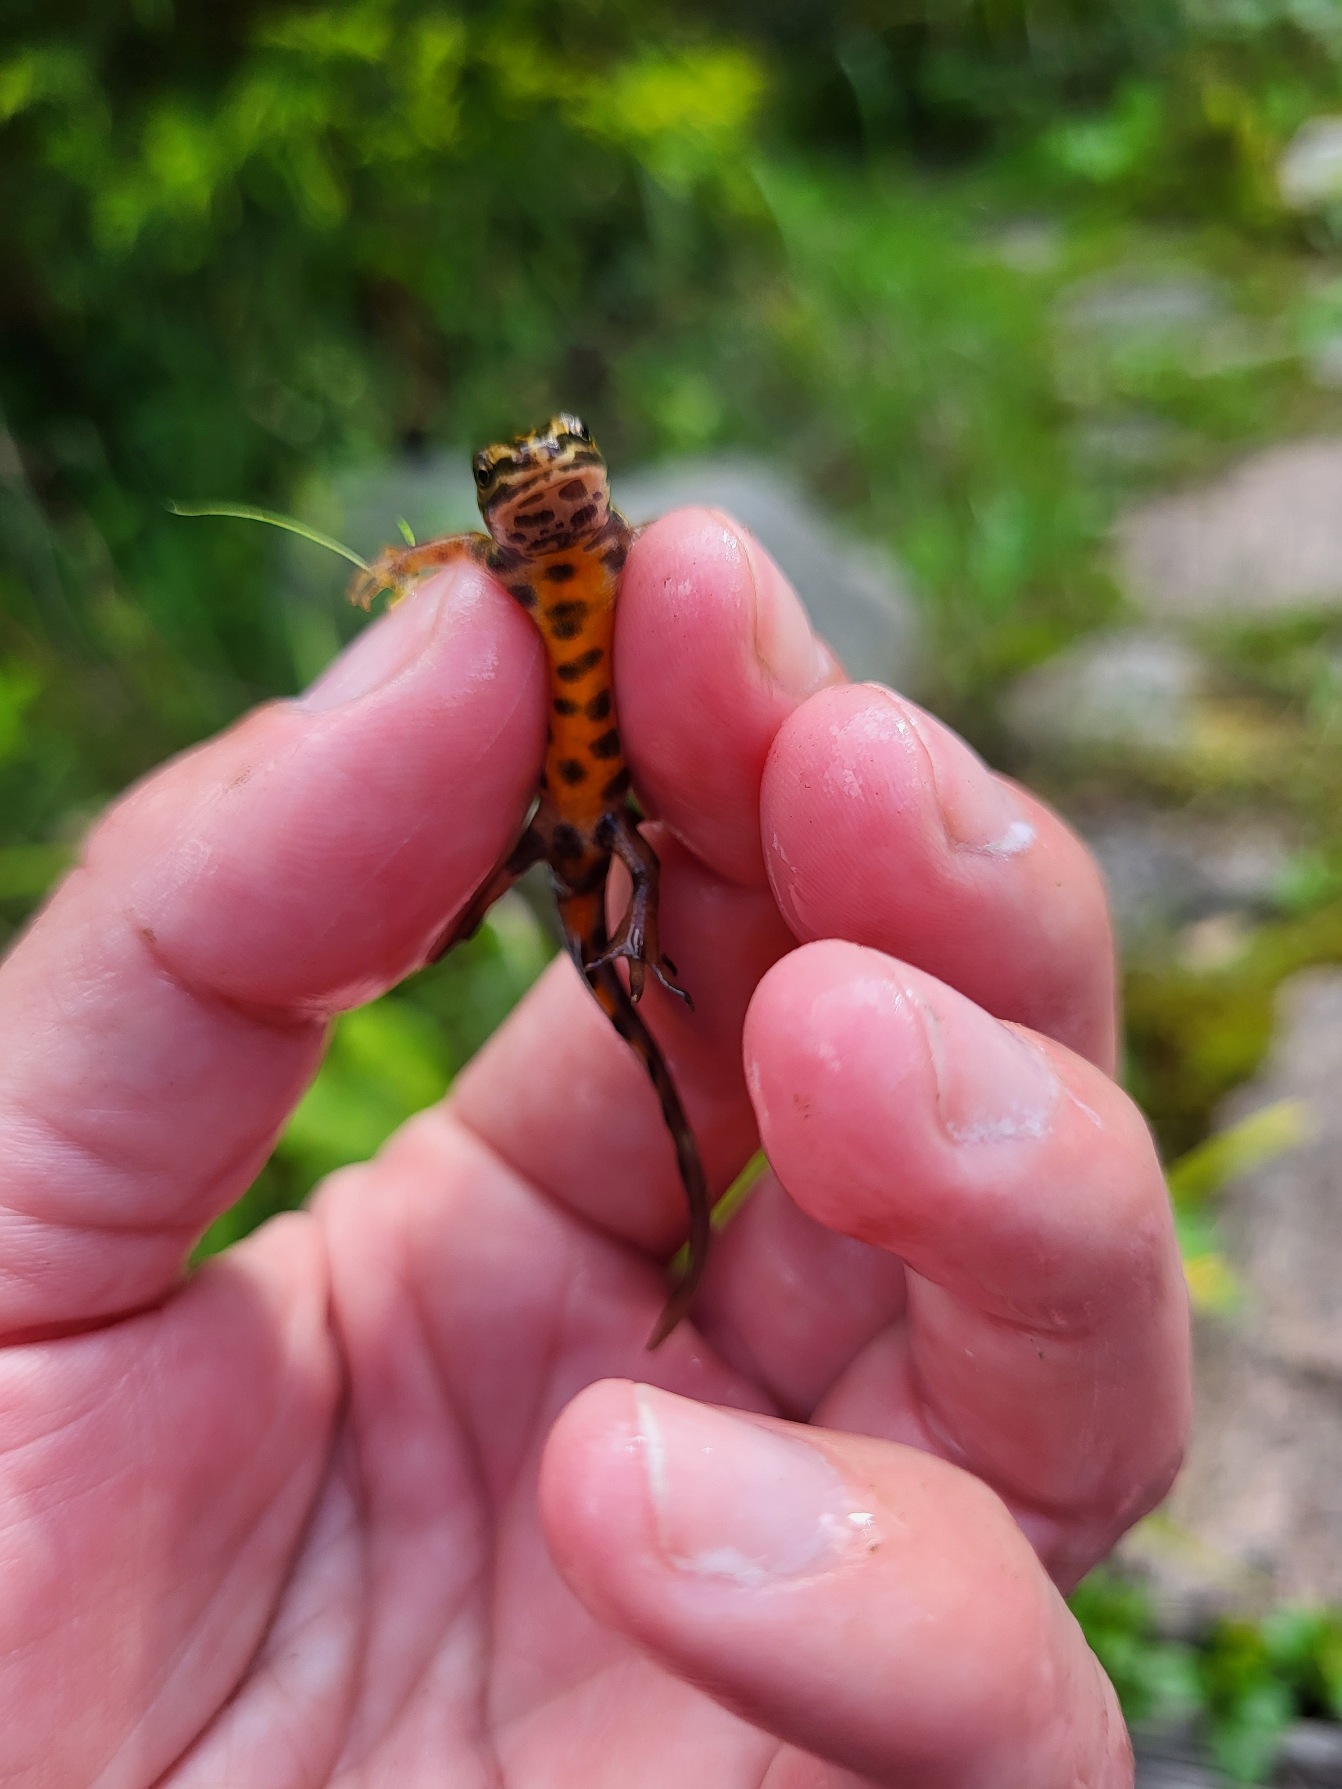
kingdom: Animalia
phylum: Chordata
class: Amphibia
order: Caudata
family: Salamandridae
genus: Lissotriton
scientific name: Lissotriton vulgaris
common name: Lille vandsalamander
